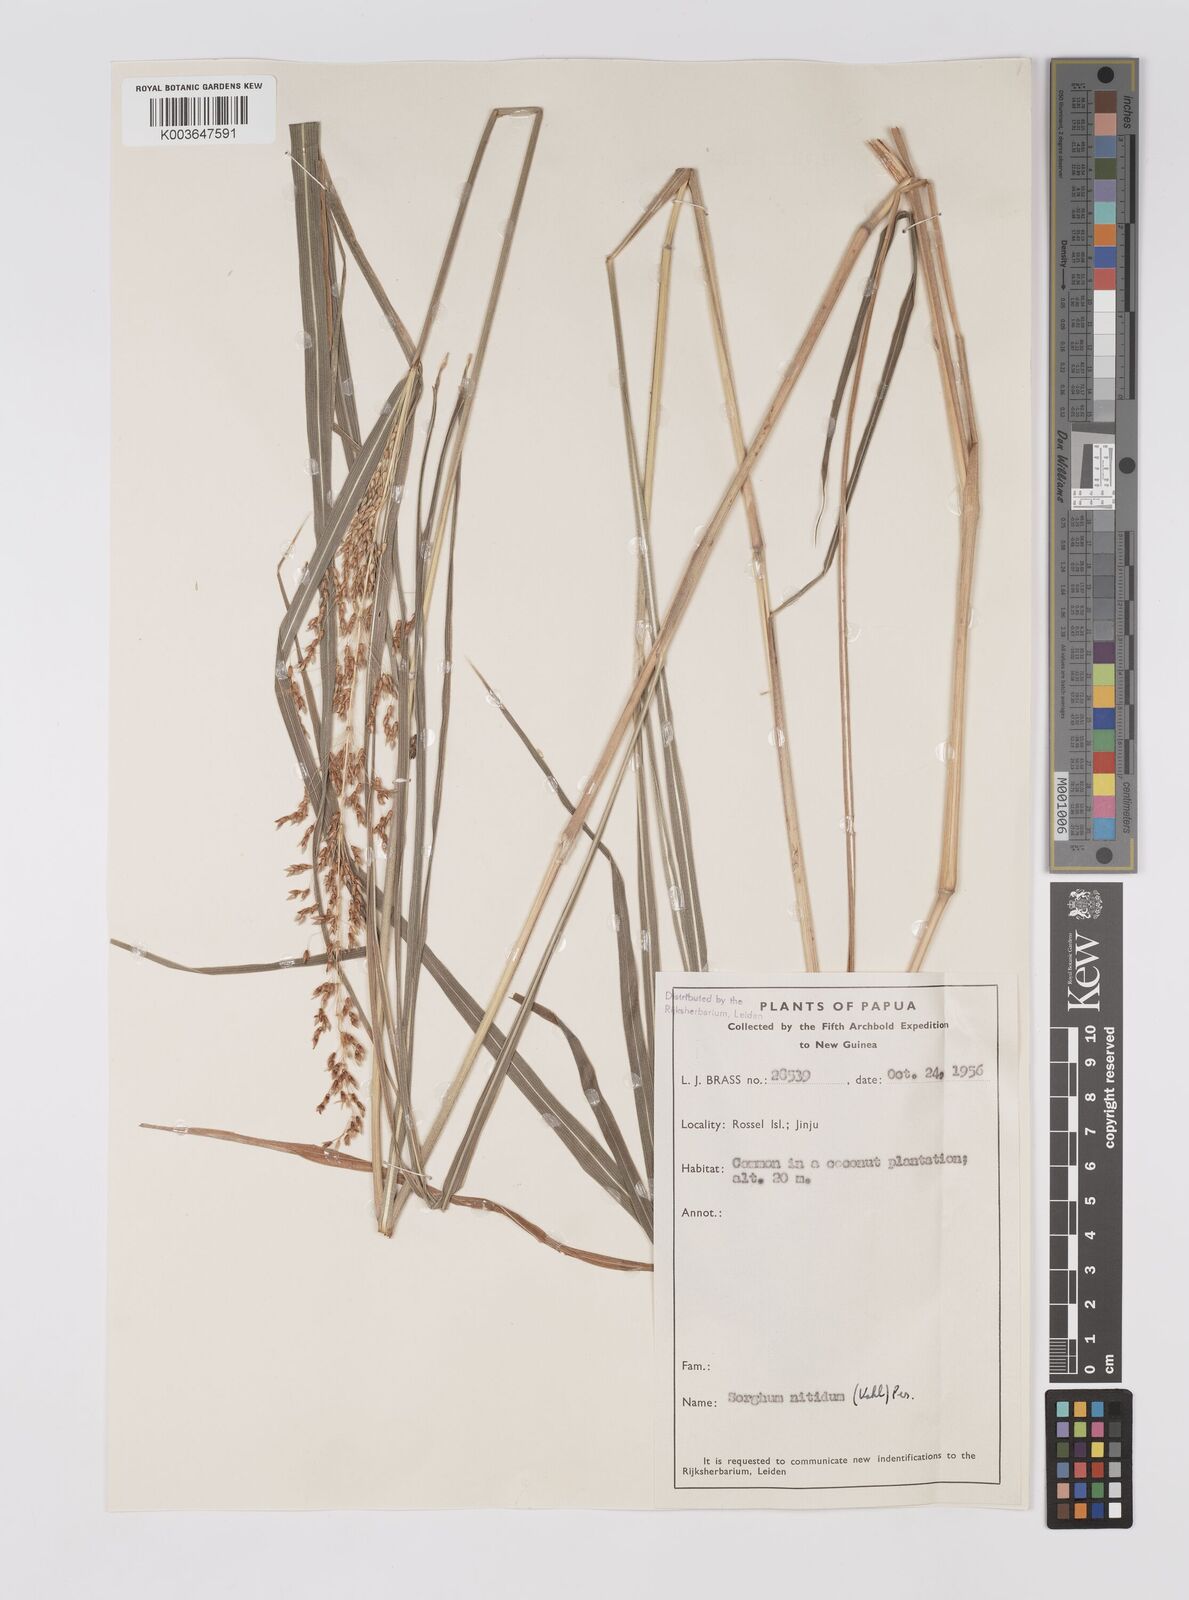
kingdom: Plantae
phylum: Tracheophyta
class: Liliopsida
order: Poales
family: Poaceae
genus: Sorghum
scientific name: Sorghum nitidum
